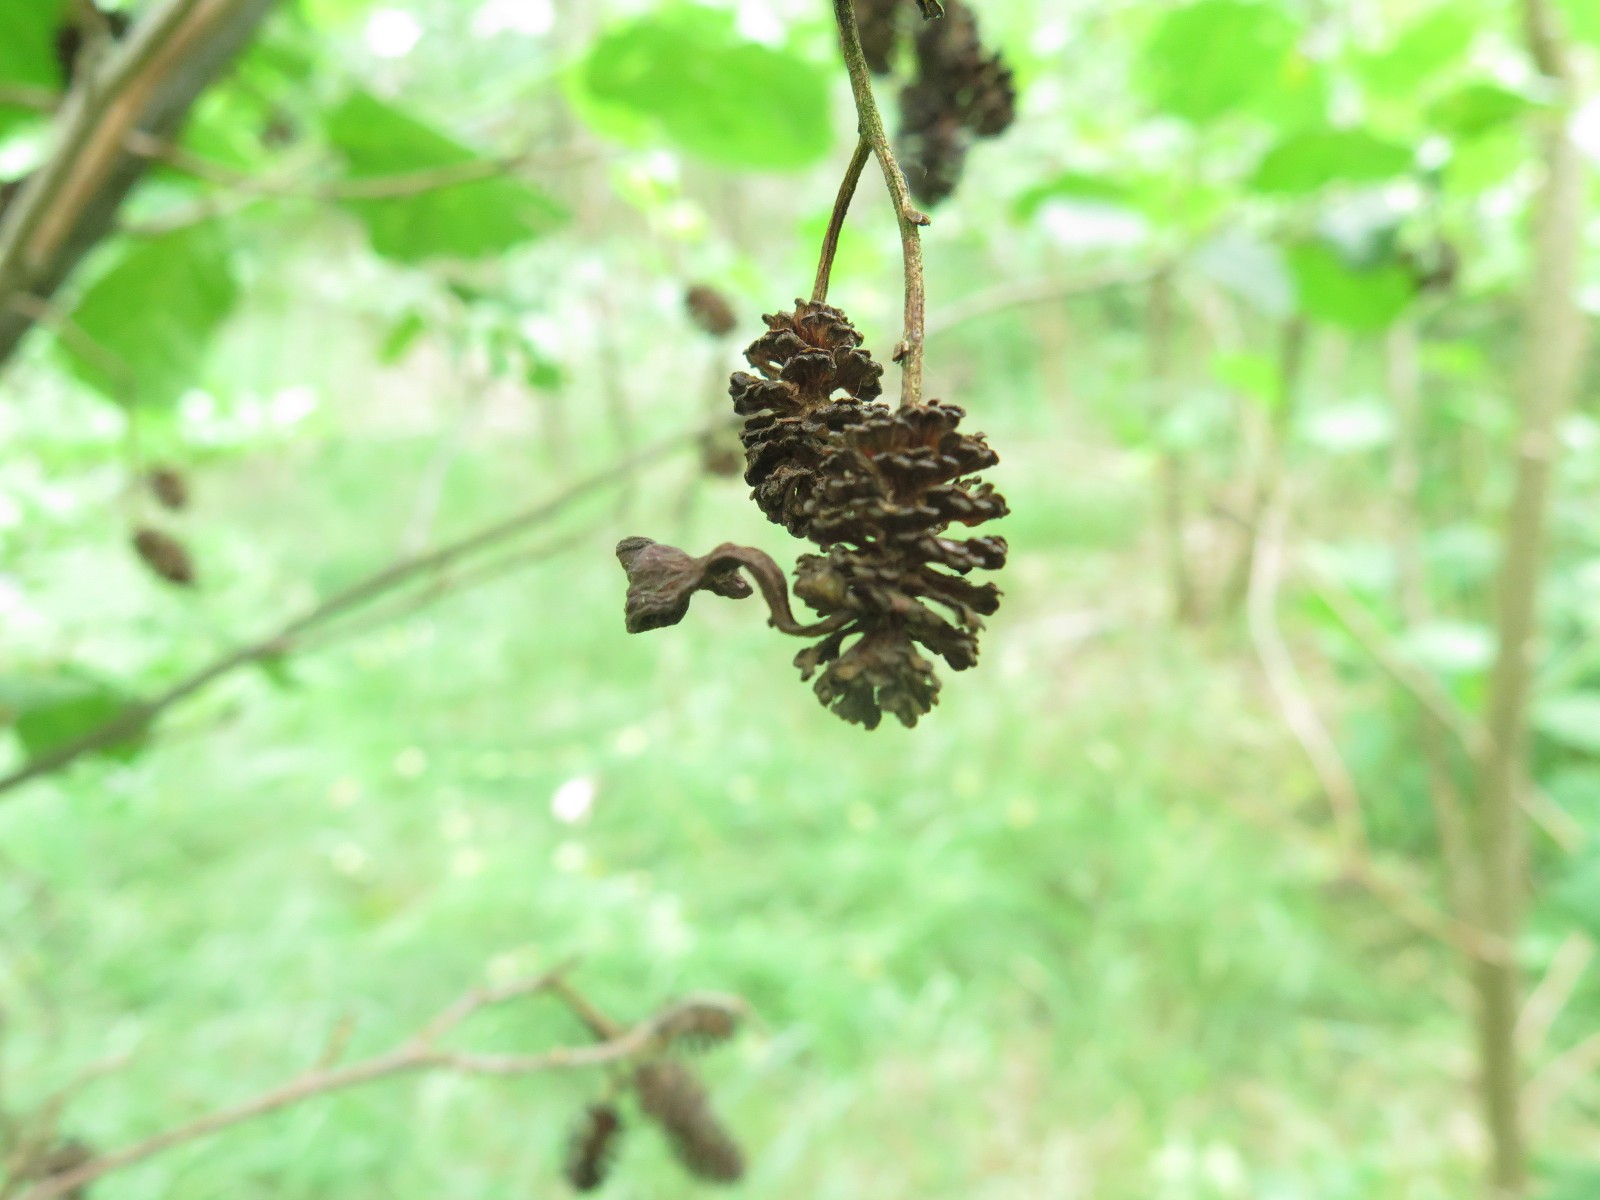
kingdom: Fungi
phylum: Ascomycota
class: Taphrinomycetes
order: Taphrinales
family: Taphrinaceae
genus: Taphrina
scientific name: Taphrina alni
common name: Alder tongue
